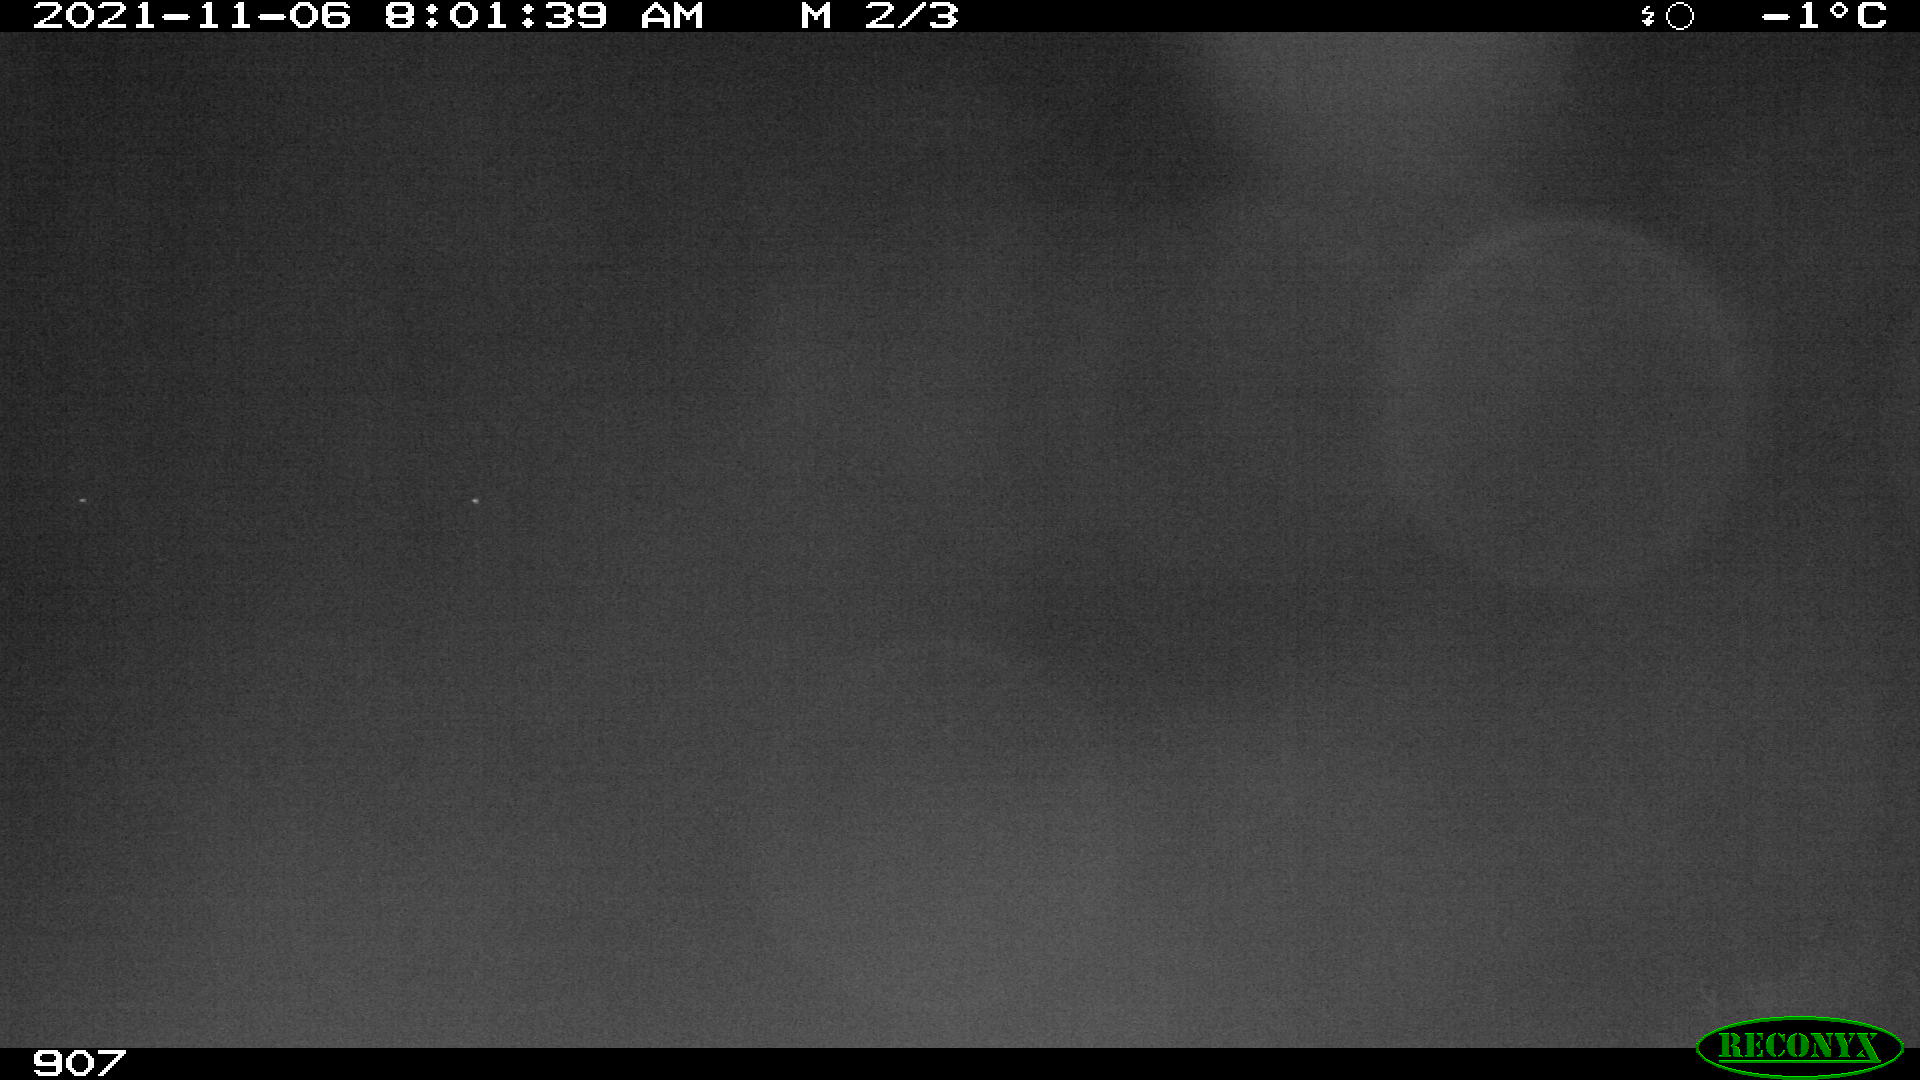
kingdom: Animalia
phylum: Chordata
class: Mammalia
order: Perissodactyla
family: Equidae
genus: Equus
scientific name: Equus caballus
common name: Horse
